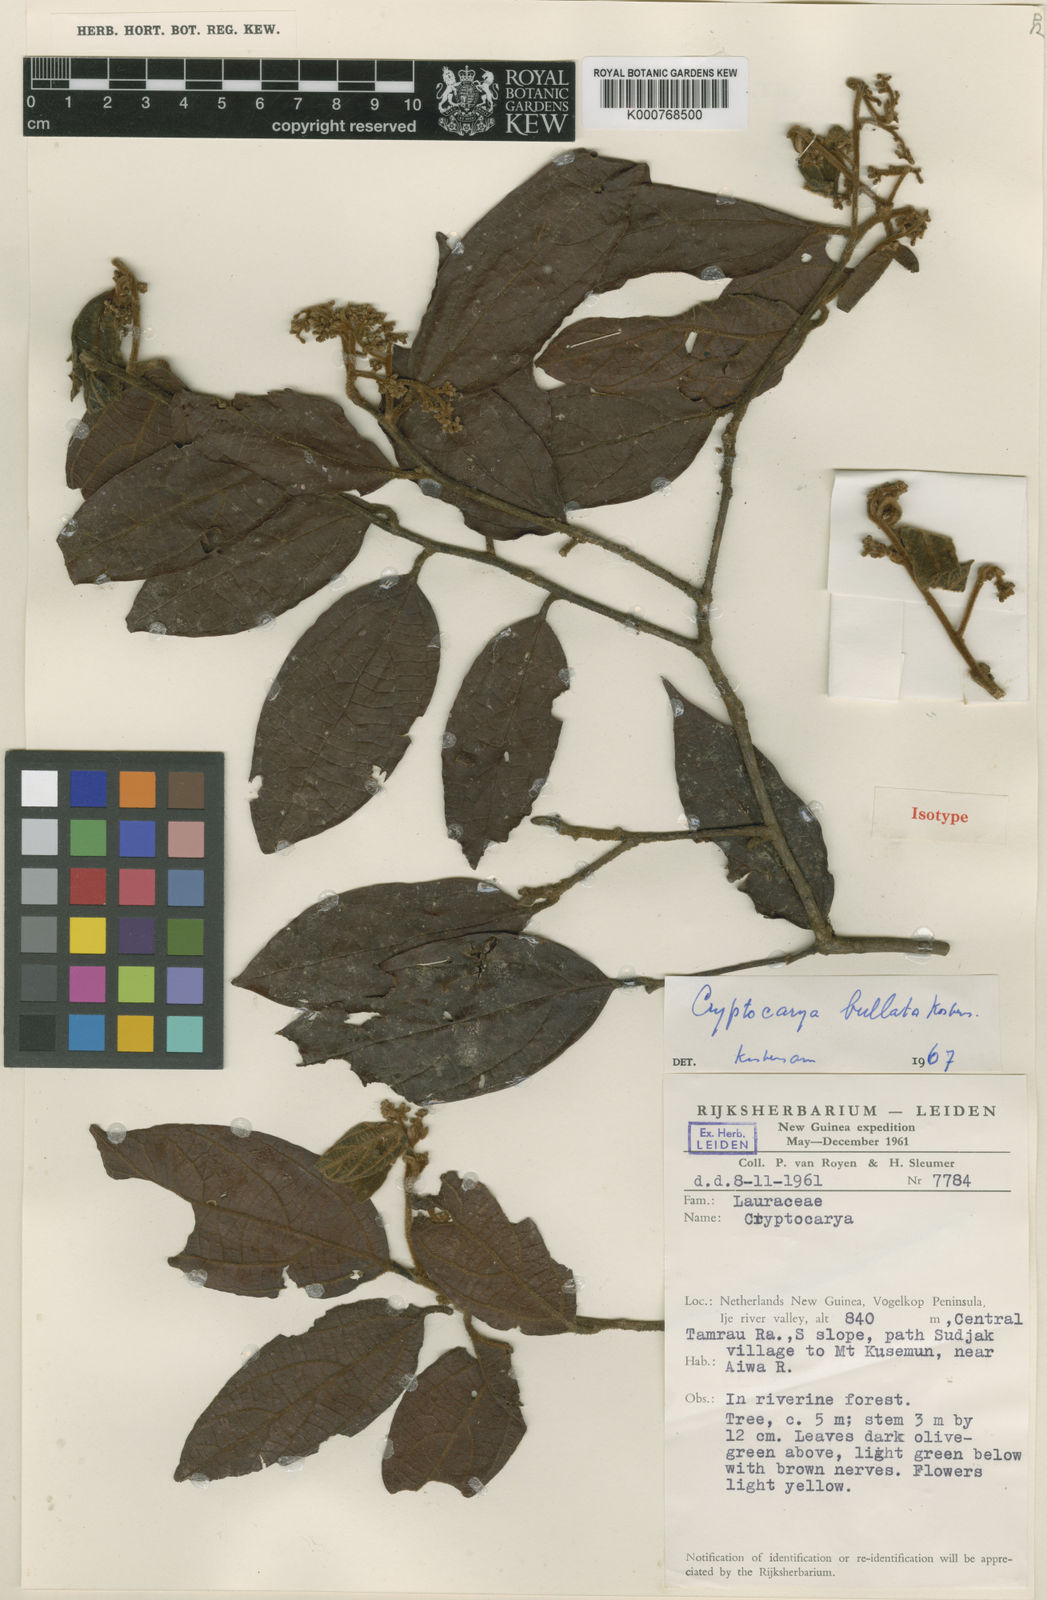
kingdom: Plantae
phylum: Tracheophyta
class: Magnoliopsida
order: Laurales
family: Lauraceae
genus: Cryptocarya
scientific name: Cryptocarya bullata
